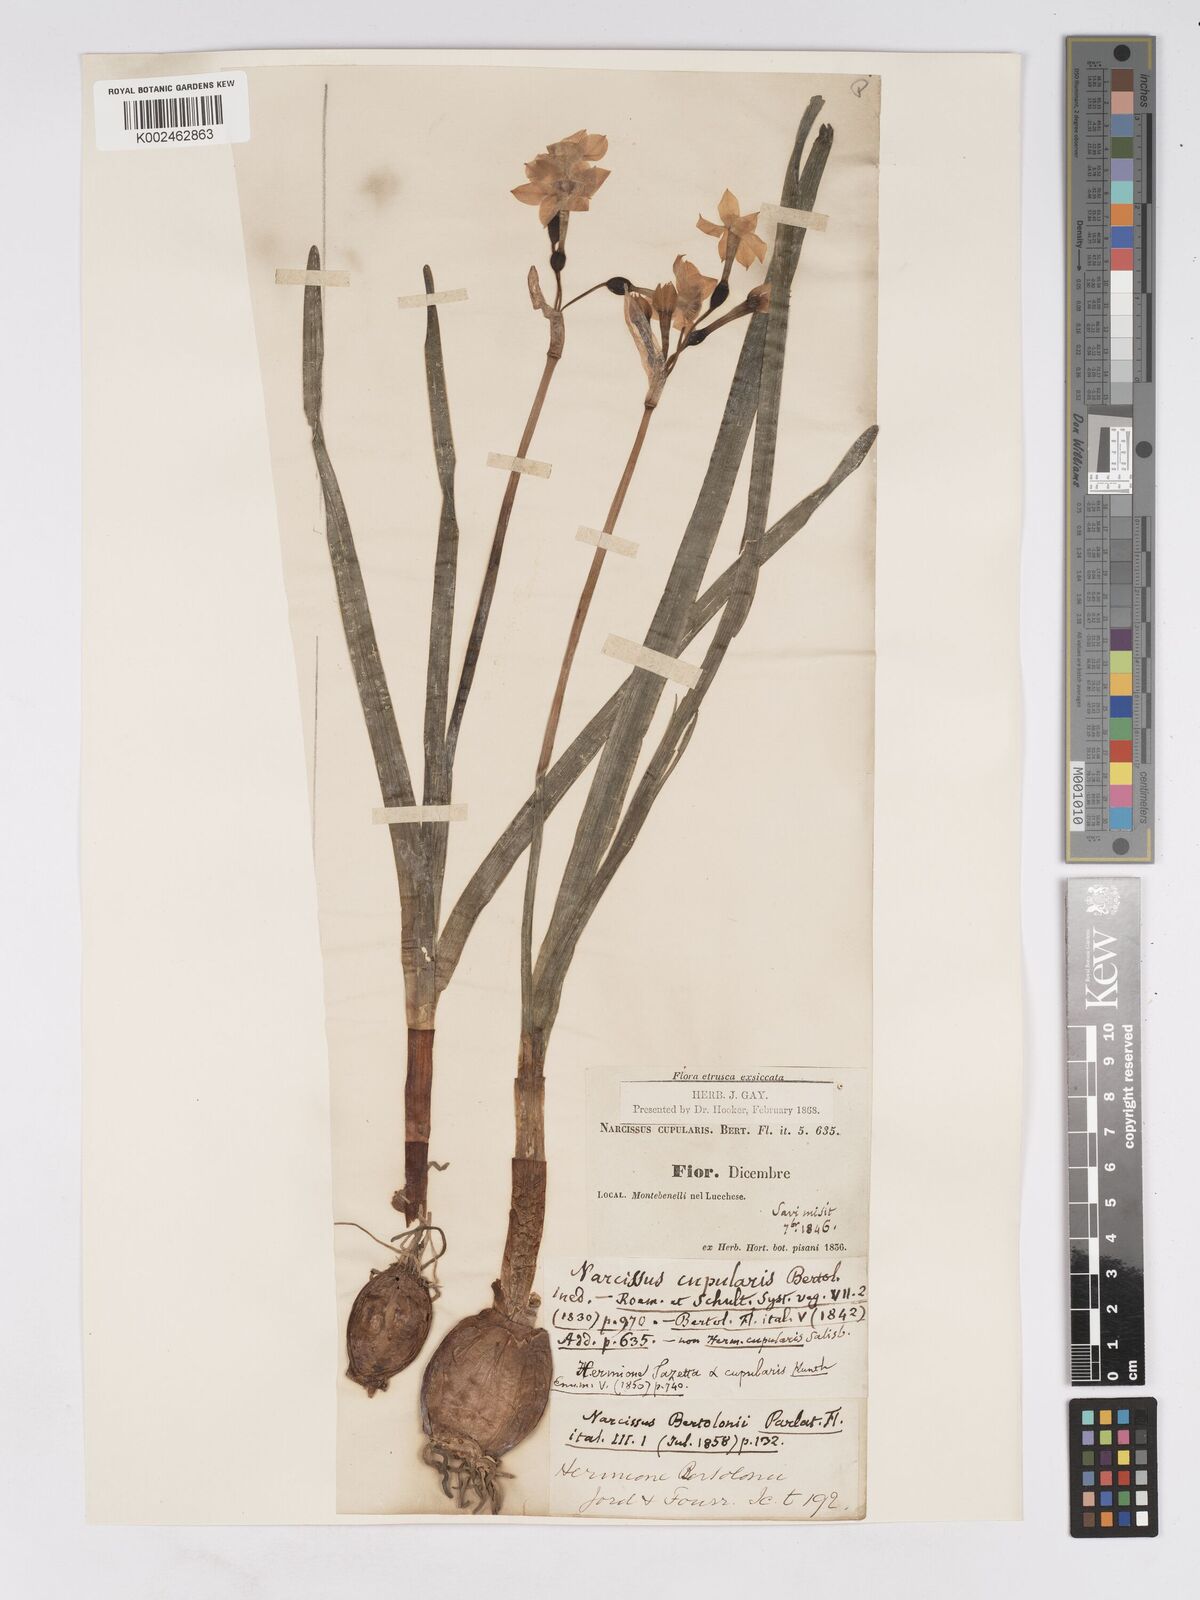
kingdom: Plantae
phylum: Tracheophyta
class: Liliopsida
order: Asparagales
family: Amaryllidaceae
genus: Narcissus
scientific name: Narcissus tazetta
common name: Bunch-flowered daffodil
